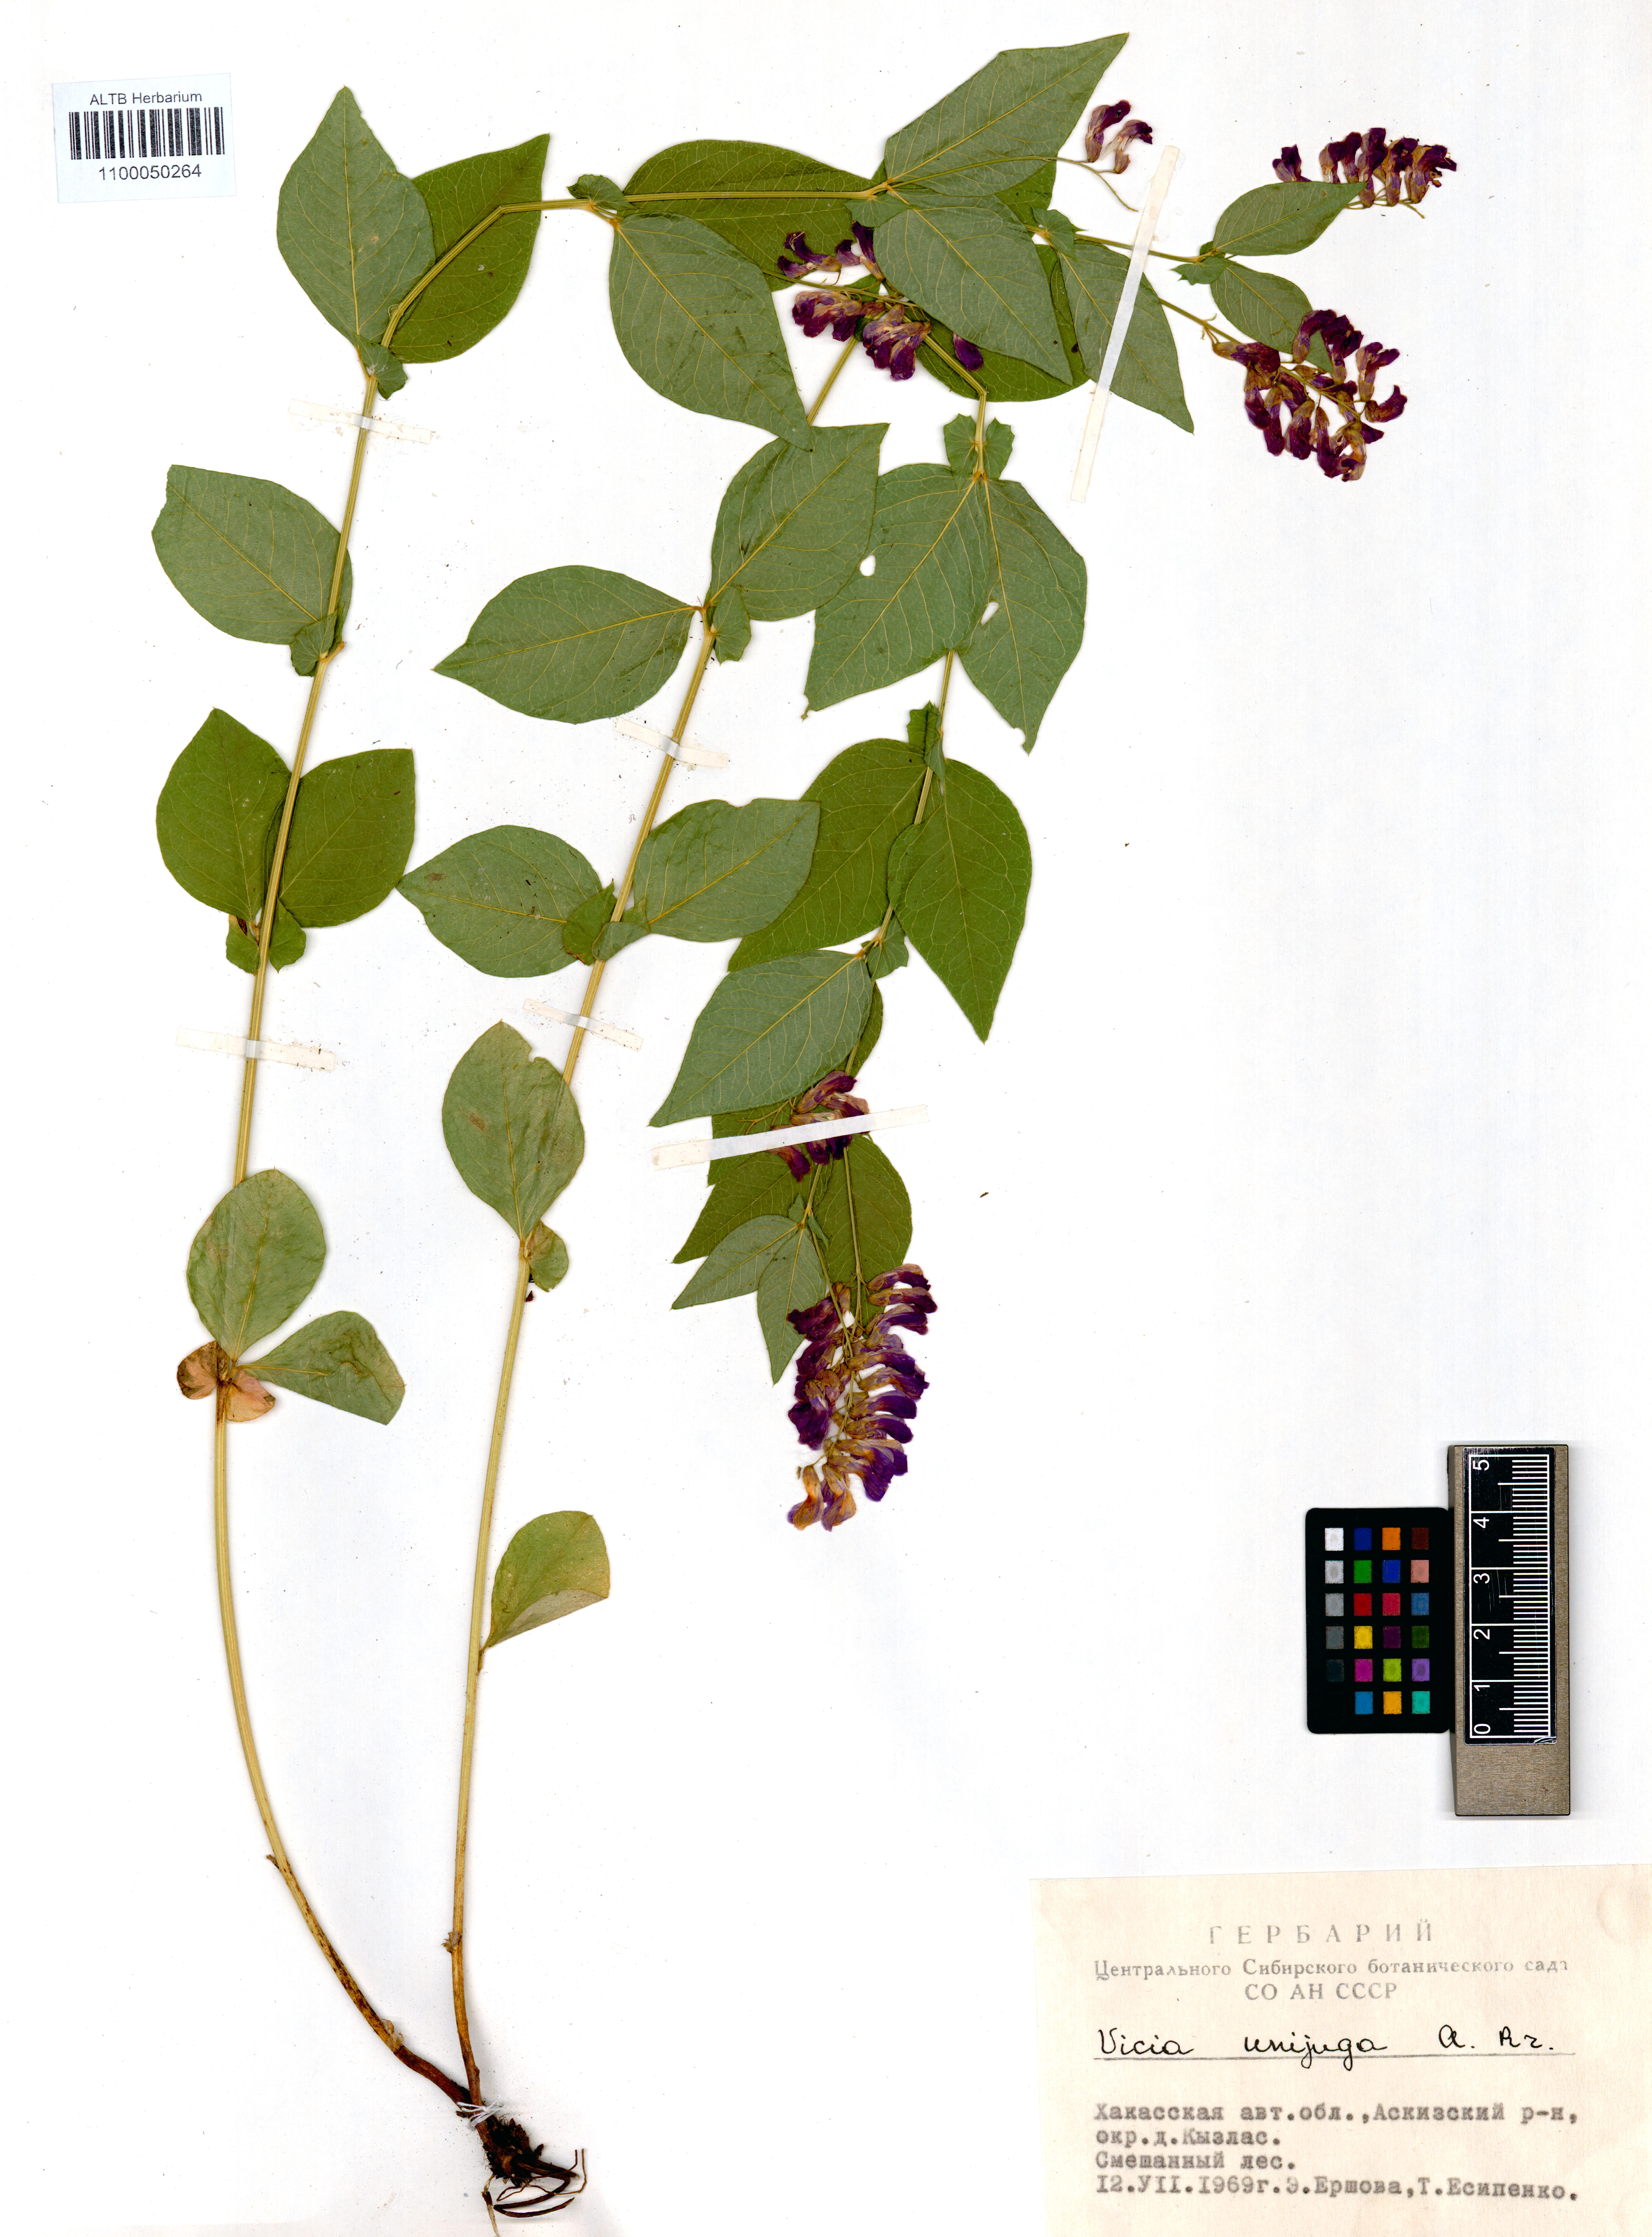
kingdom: Plantae
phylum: Tracheophyta
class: Magnoliopsida
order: Fabales
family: Fabaceae
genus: Vicia
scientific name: Vicia unijuga
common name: Two-leaf vetch
